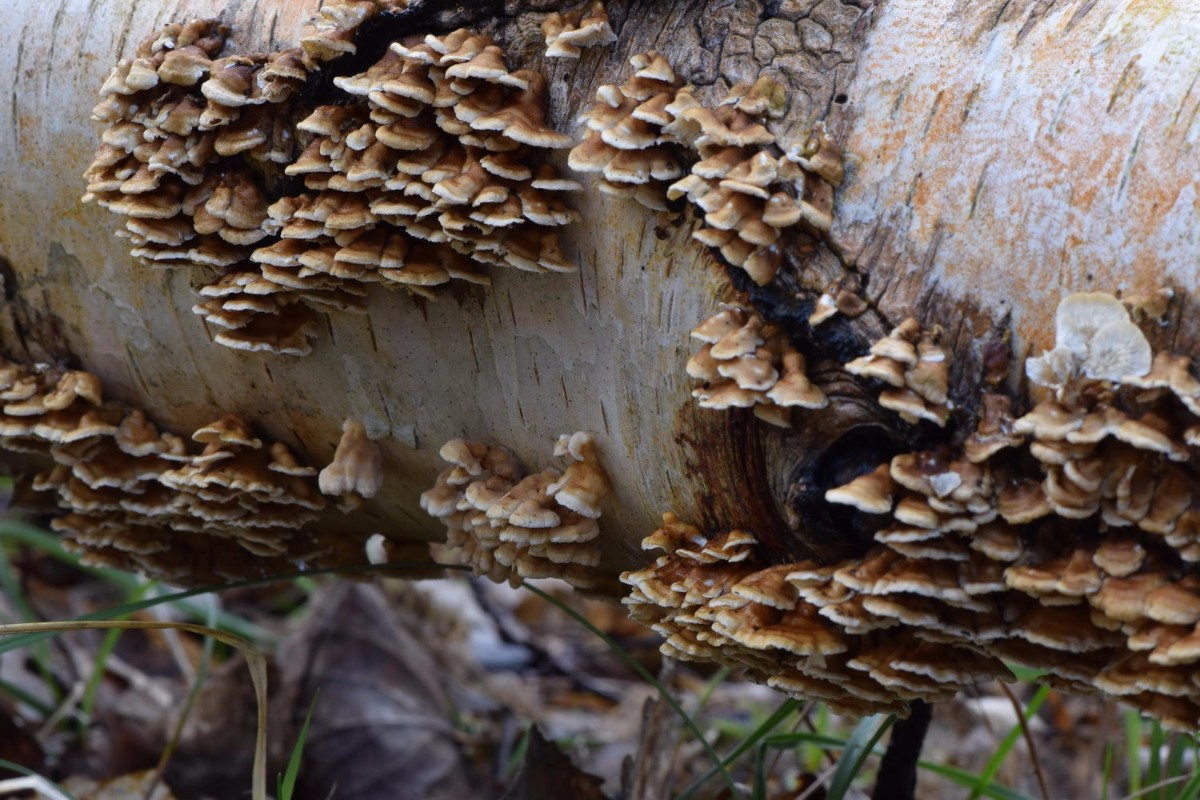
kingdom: Fungi
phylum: Basidiomycota
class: Agaricomycetes
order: Amylocorticiales
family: Amylocorticiaceae
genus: Plicaturopsis
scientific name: Plicaturopsis crispa
